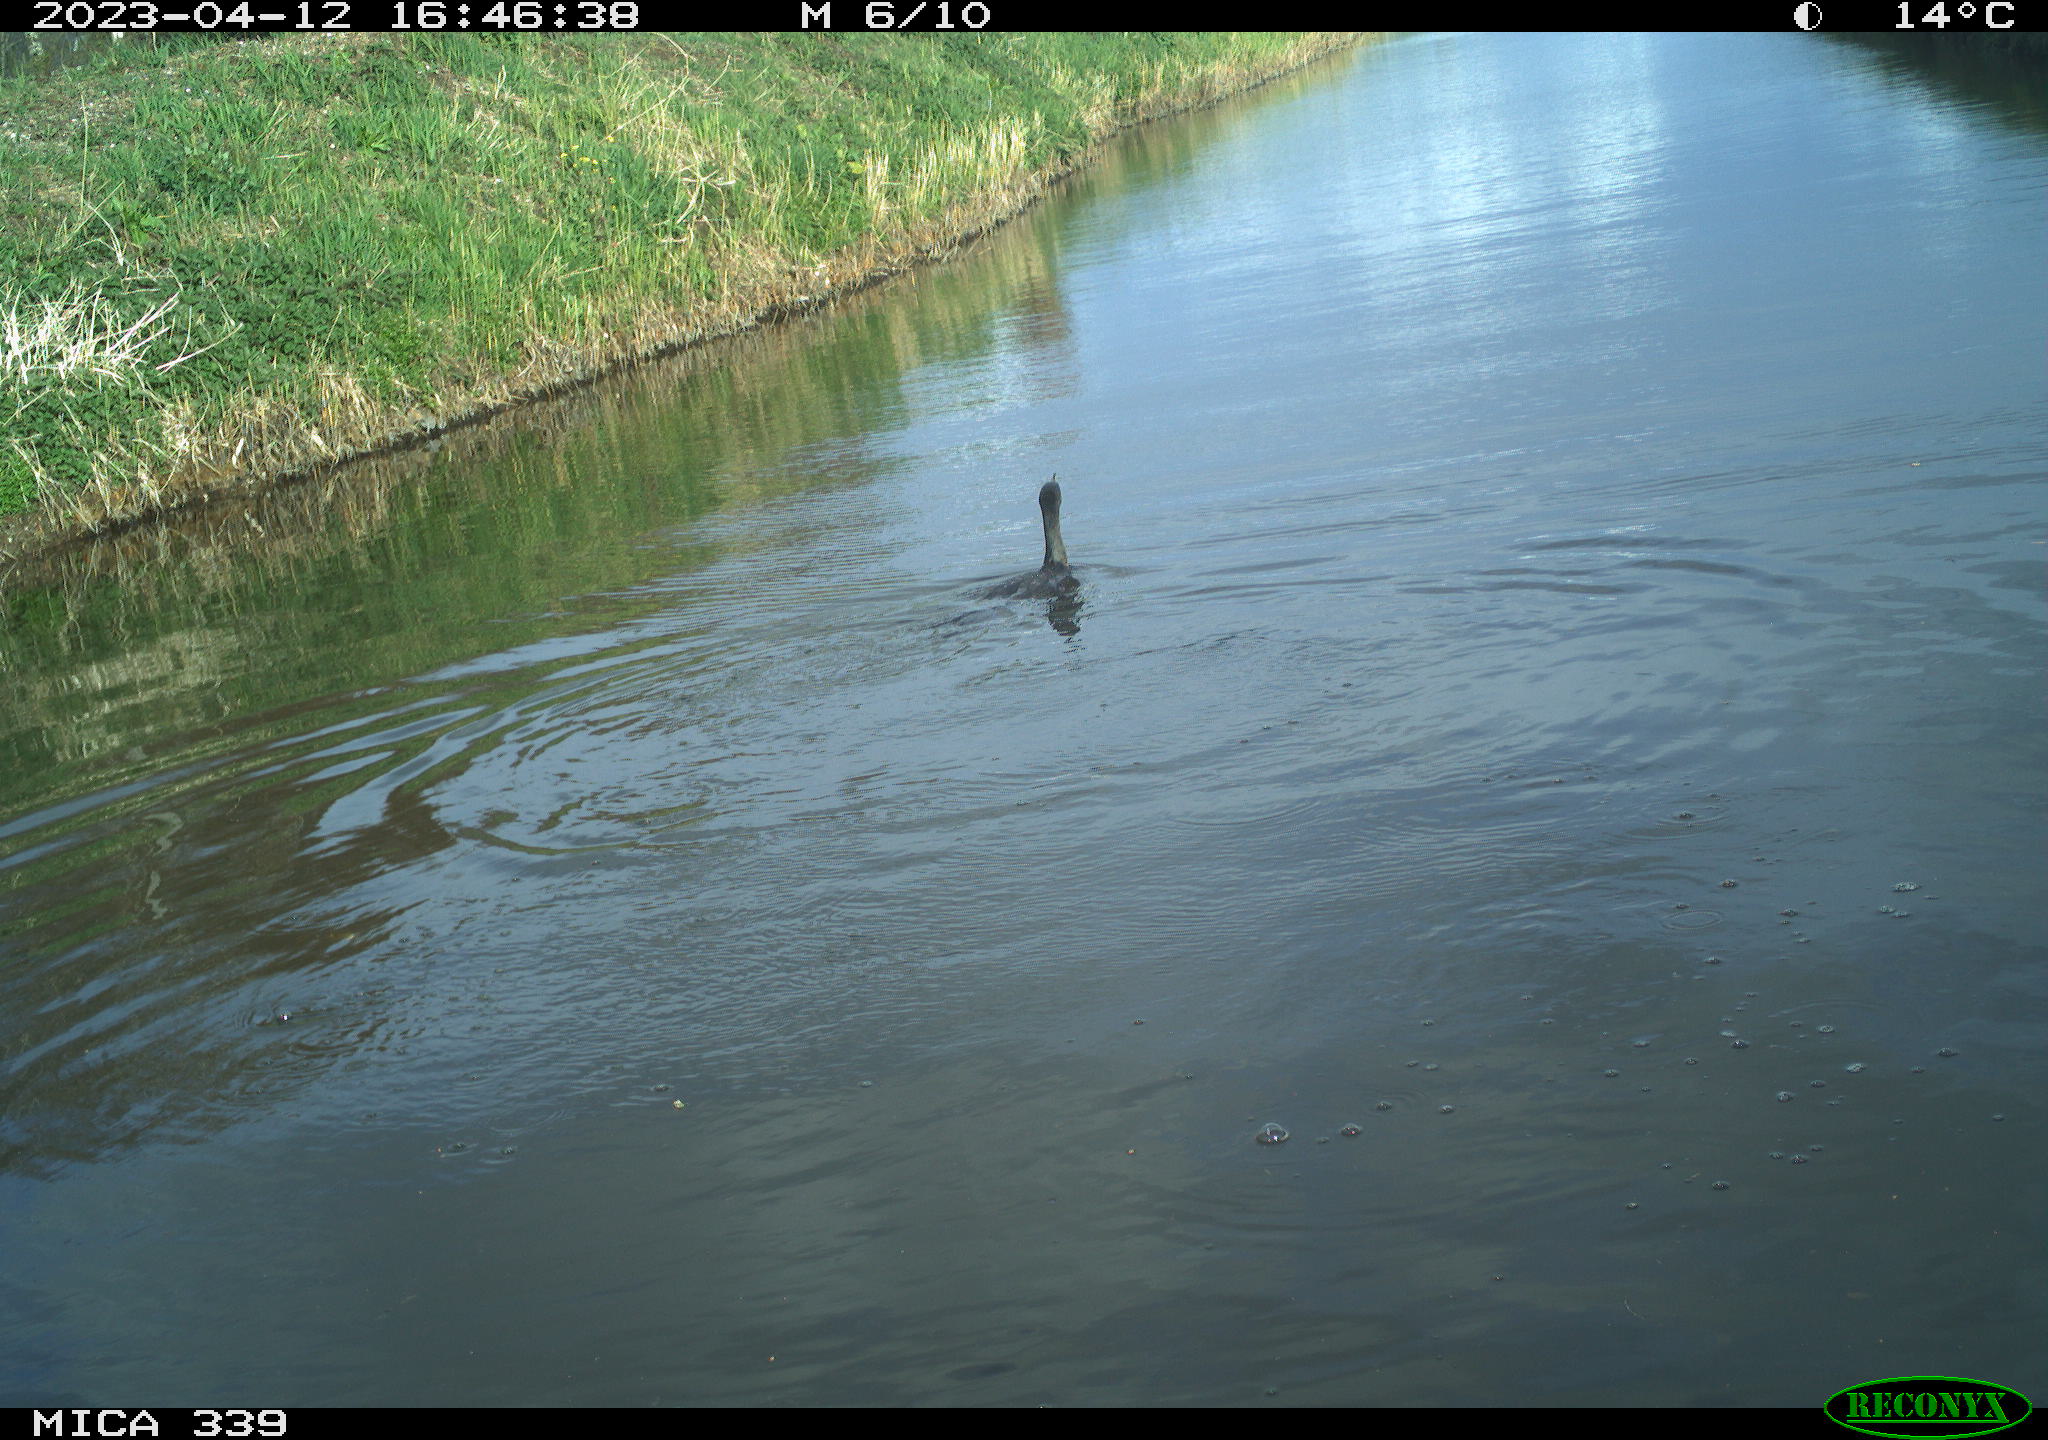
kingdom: Animalia
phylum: Chordata
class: Aves
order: Anseriformes
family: Anatidae
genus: Anas
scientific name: Anas
